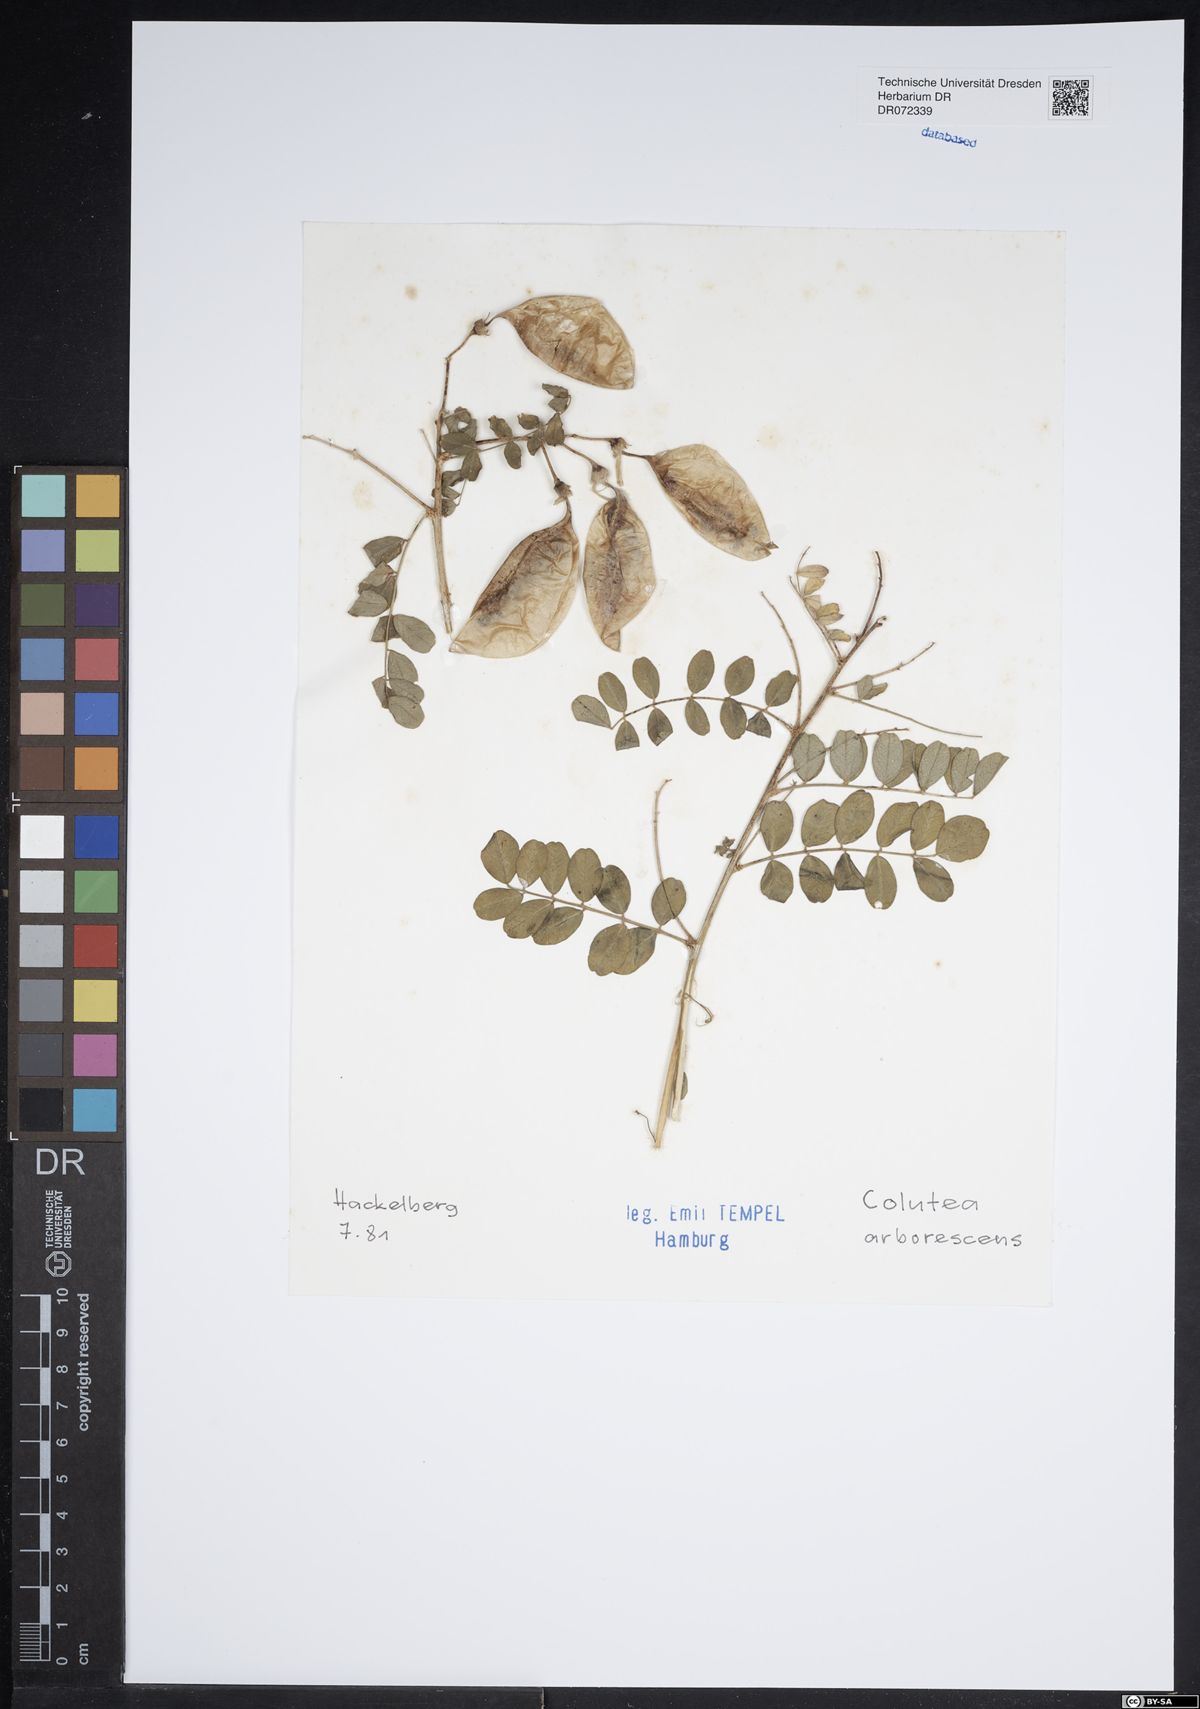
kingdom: Plantae
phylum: Tracheophyta
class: Magnoliopsida
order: Fabales
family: Fabaceae
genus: Colutea
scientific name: Colutea arborescens
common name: Bladder-senna
